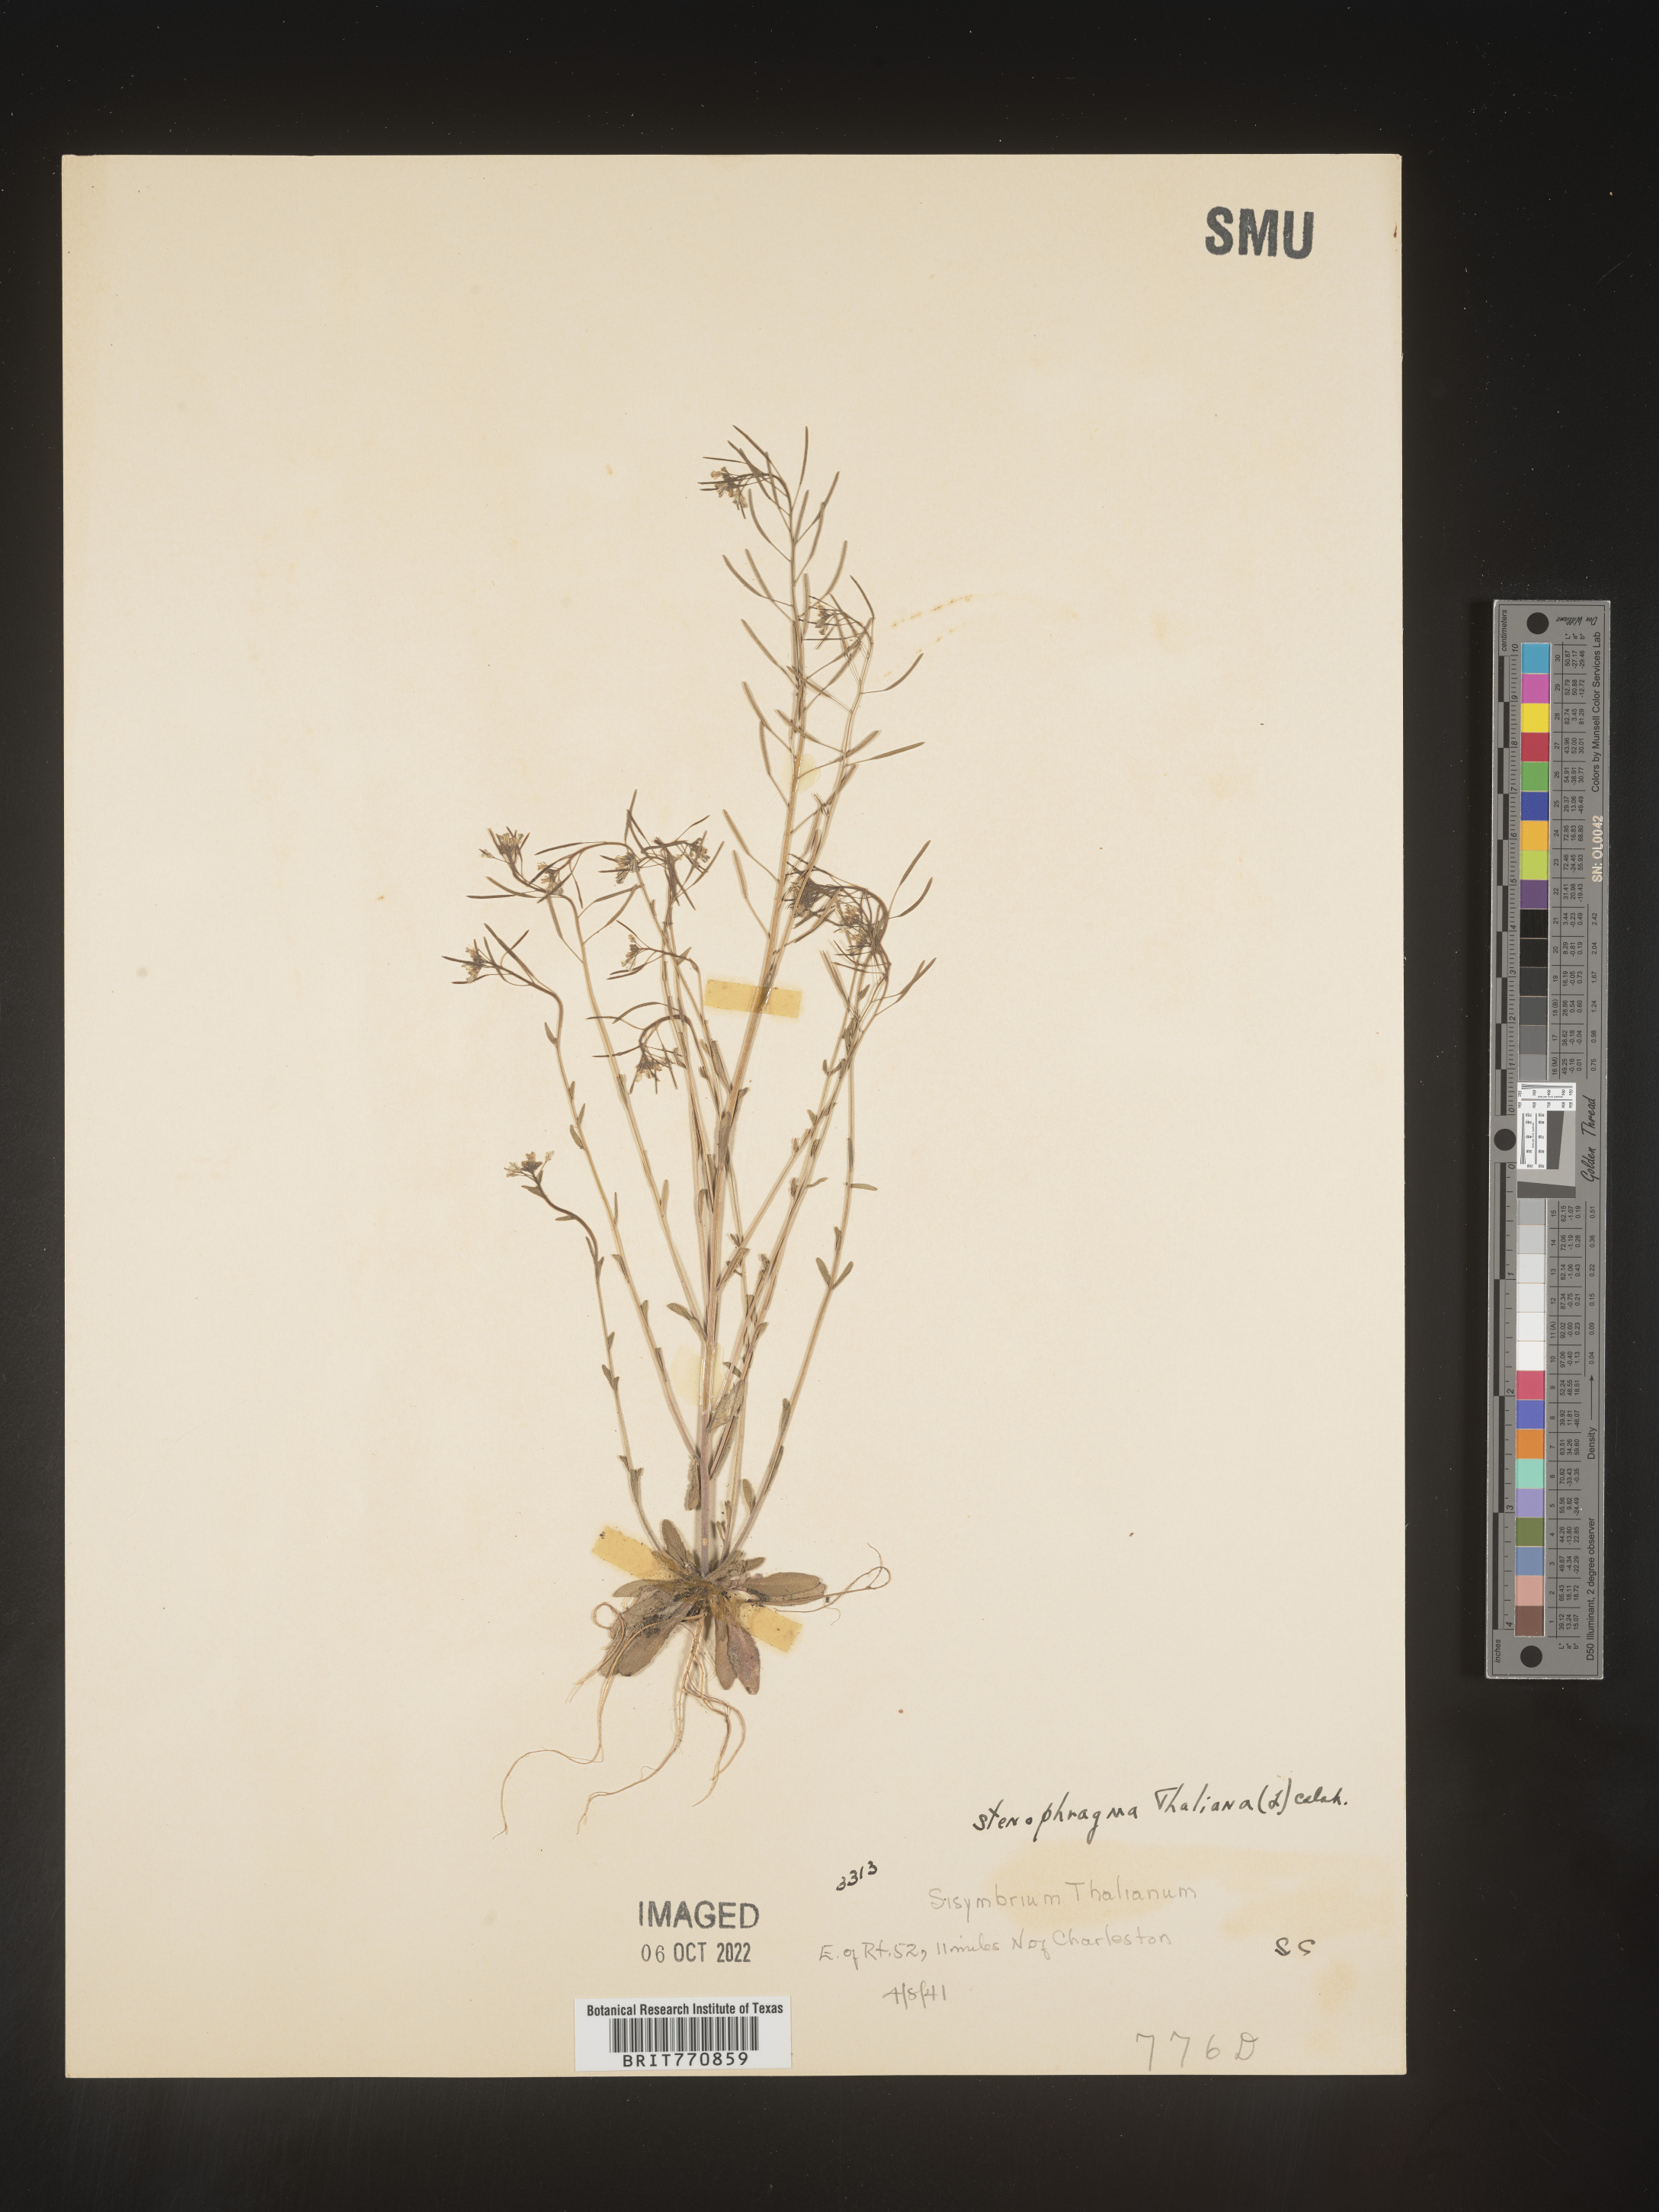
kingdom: Plantae
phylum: Tracheophyta
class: Magnoliopsida
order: Brassicales
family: Brassicaceae
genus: Arabidopsis
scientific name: Arabidopsis thaliana
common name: Thale cress
